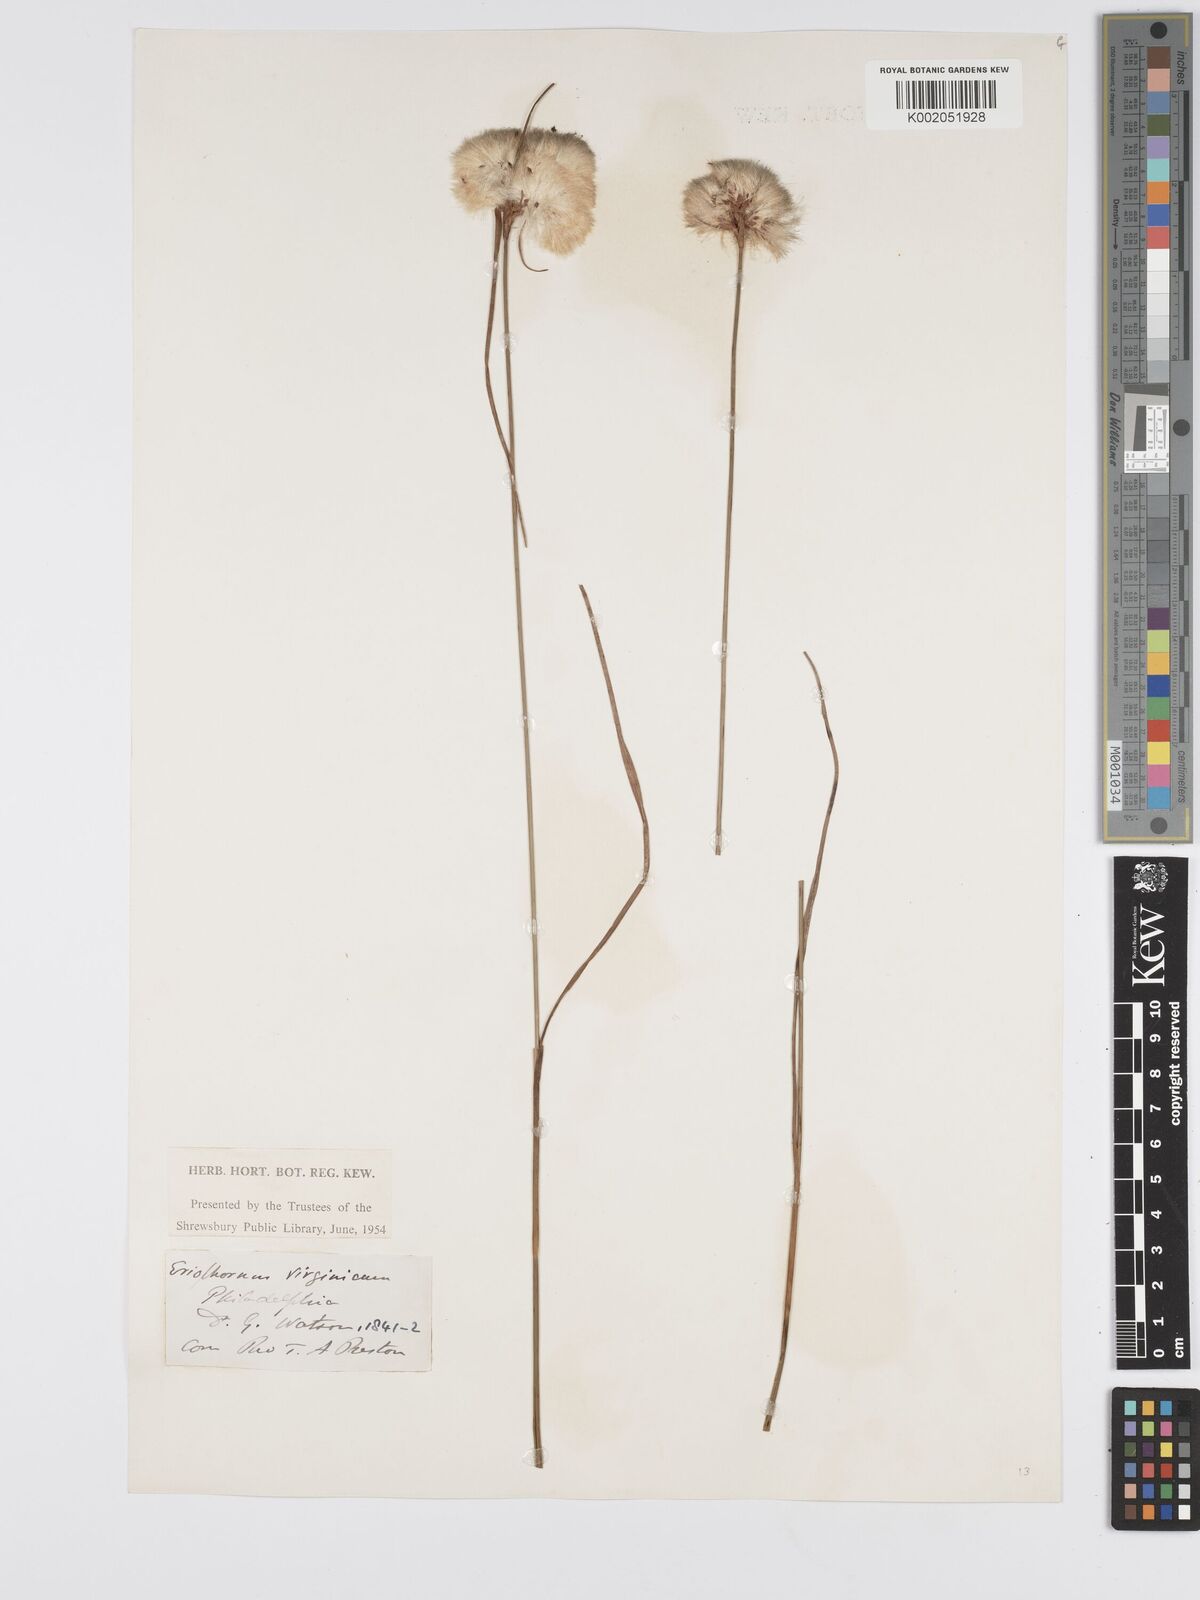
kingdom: Plantae
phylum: Tracheophyta
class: Liliopsida
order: Poales
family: Cyperaceae
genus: Eriophorum
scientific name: Eriophorum virginicum
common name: Tawny cottongrass
